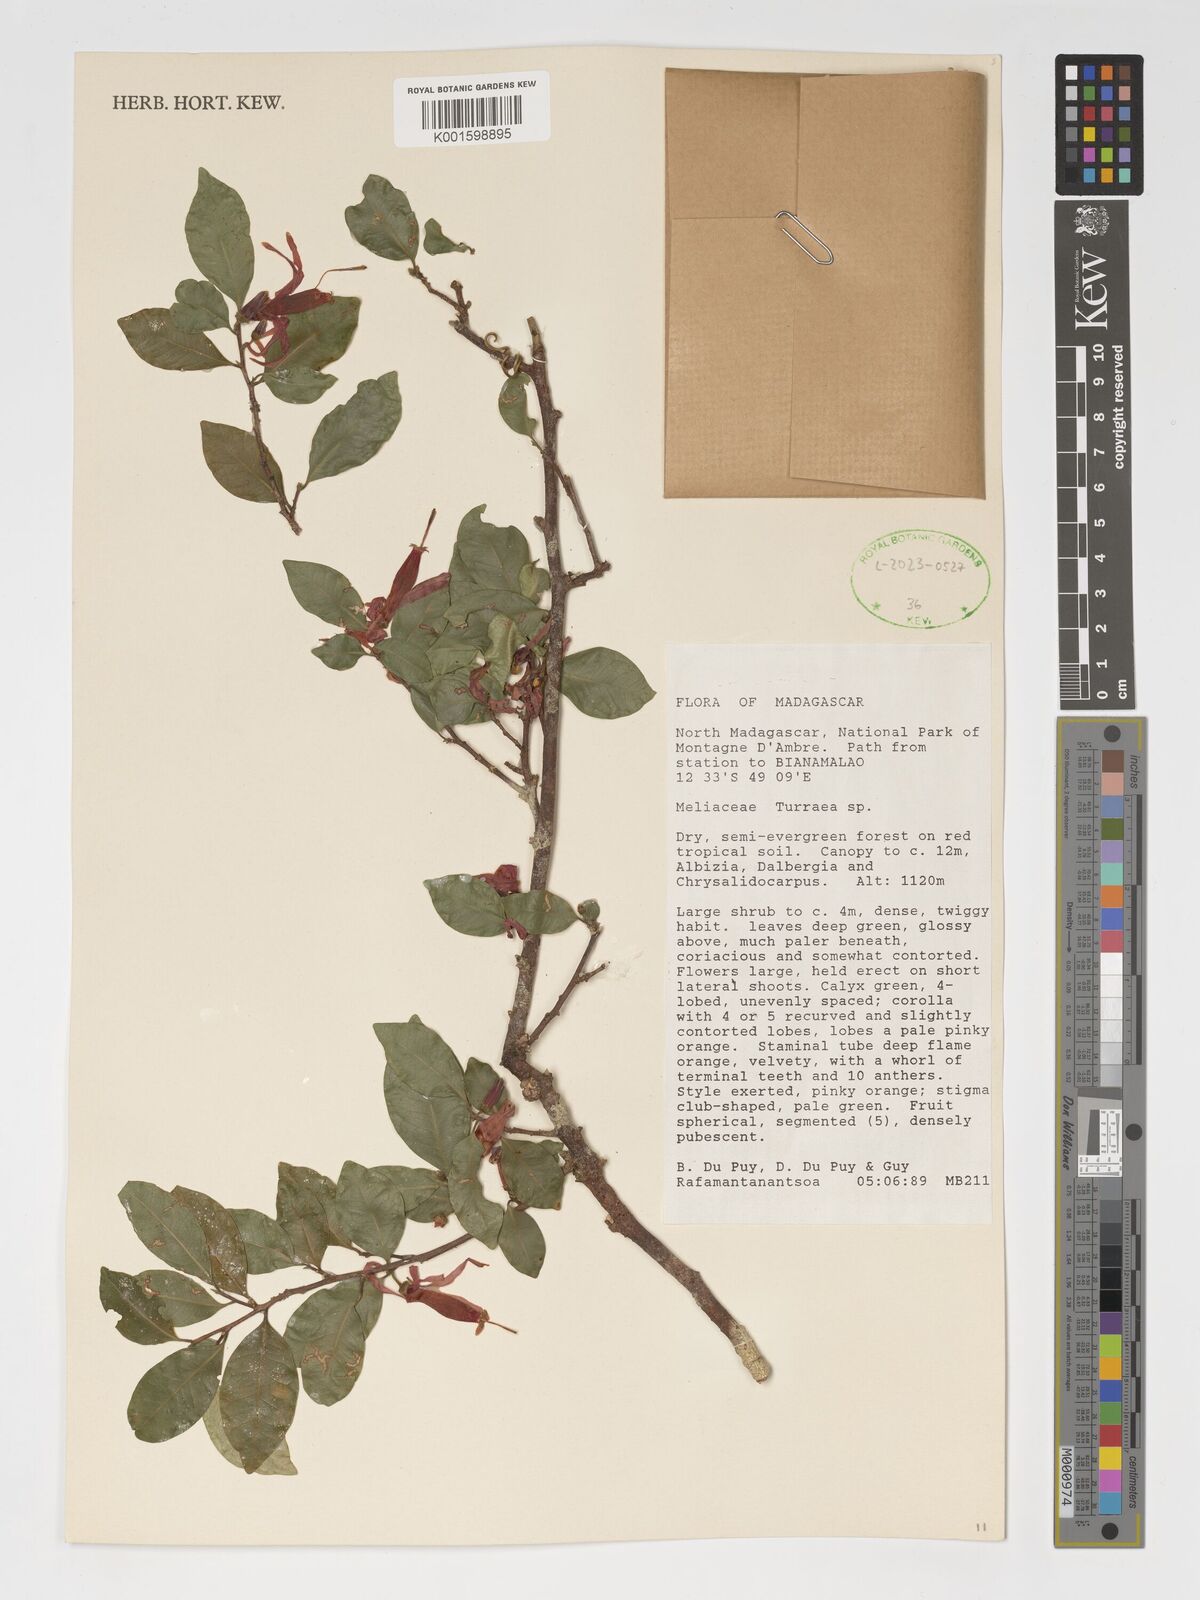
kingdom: Plantae
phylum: Tracheophyta
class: Magnoliopsida
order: Sapindales
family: Meliaceae
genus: Turraea
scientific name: Turraea
